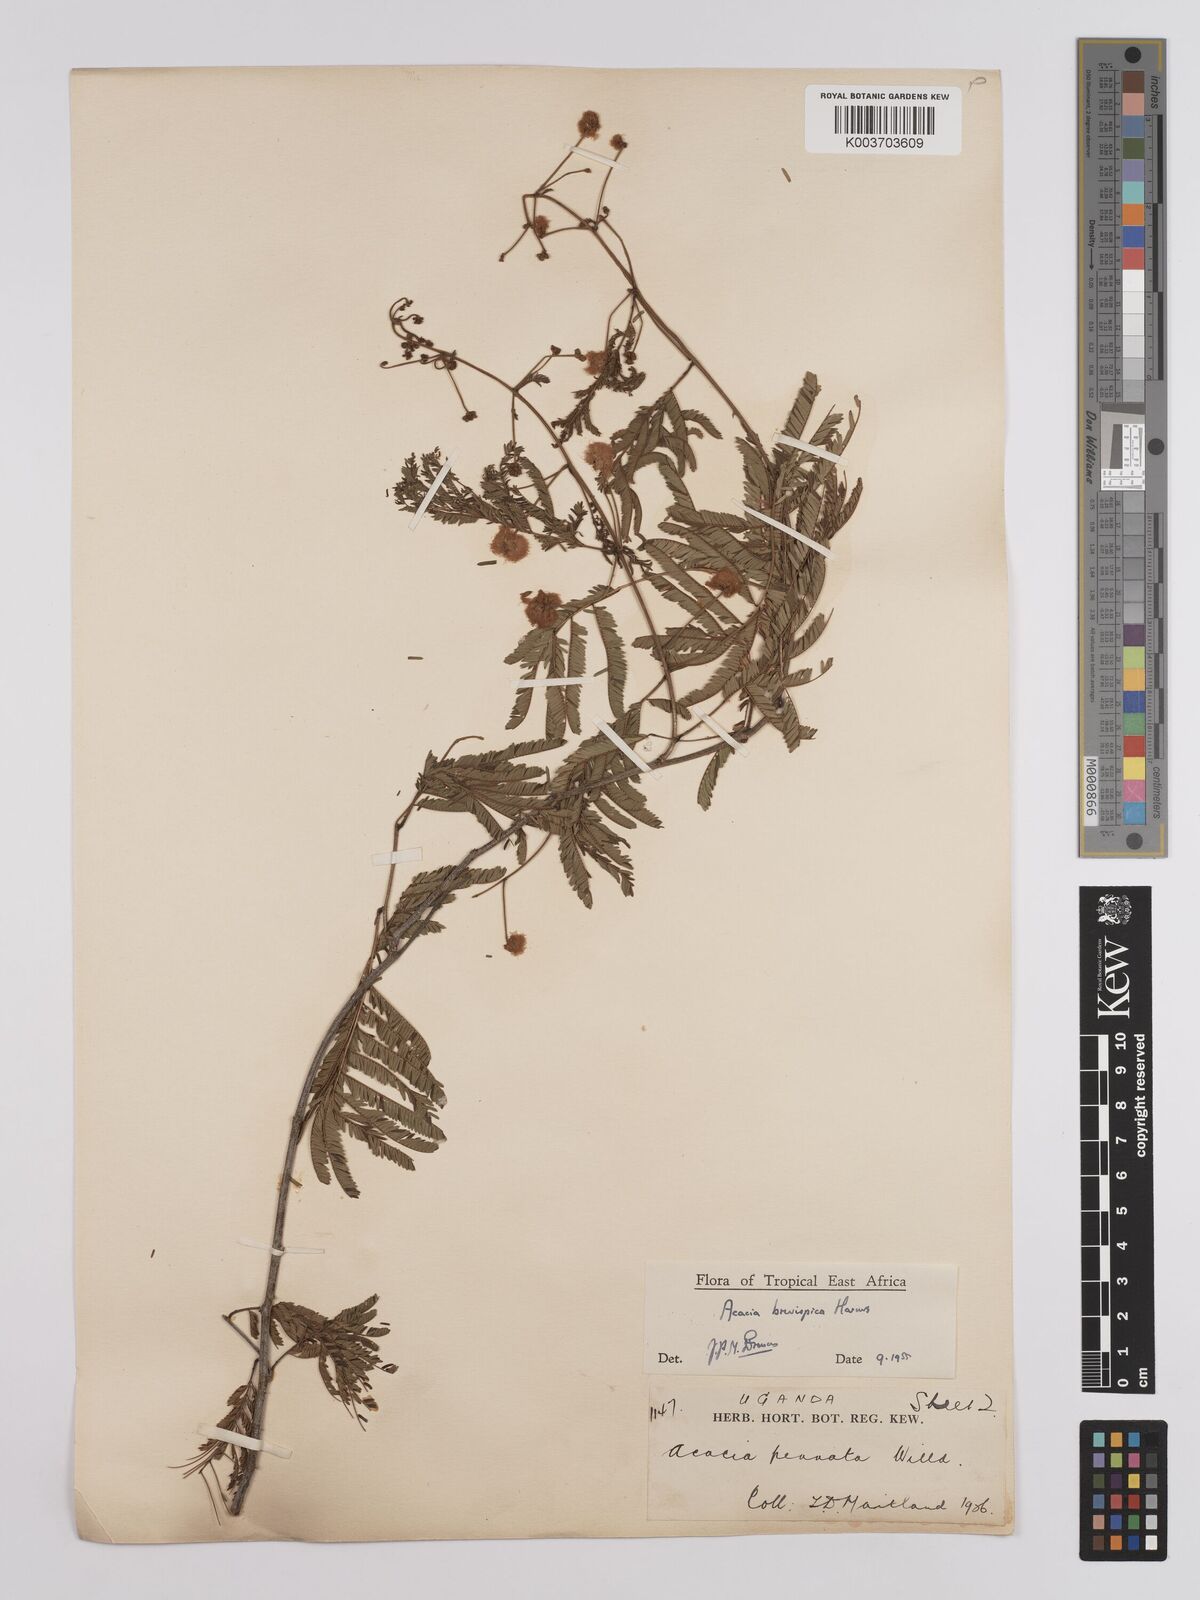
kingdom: Plantae
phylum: Tracheophyta
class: Magnoliopsida
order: Fabales
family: Fabaceae
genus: Senegalia
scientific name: Senegalia brevispica
